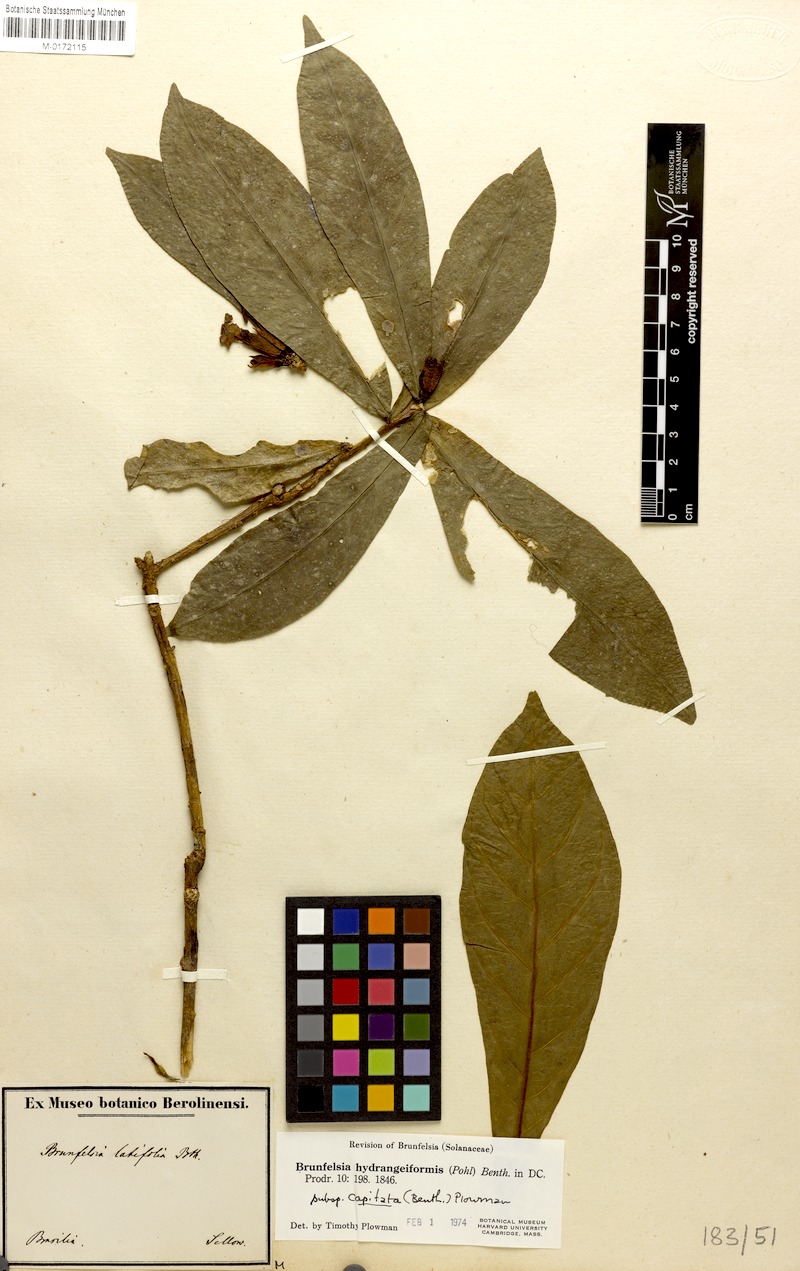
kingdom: Plantae
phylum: Tracheophyta
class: Magnoliopsida
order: Solanales
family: Solanaceae
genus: Brunfelsia
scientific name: Brunfelsia hydrangeiformis
